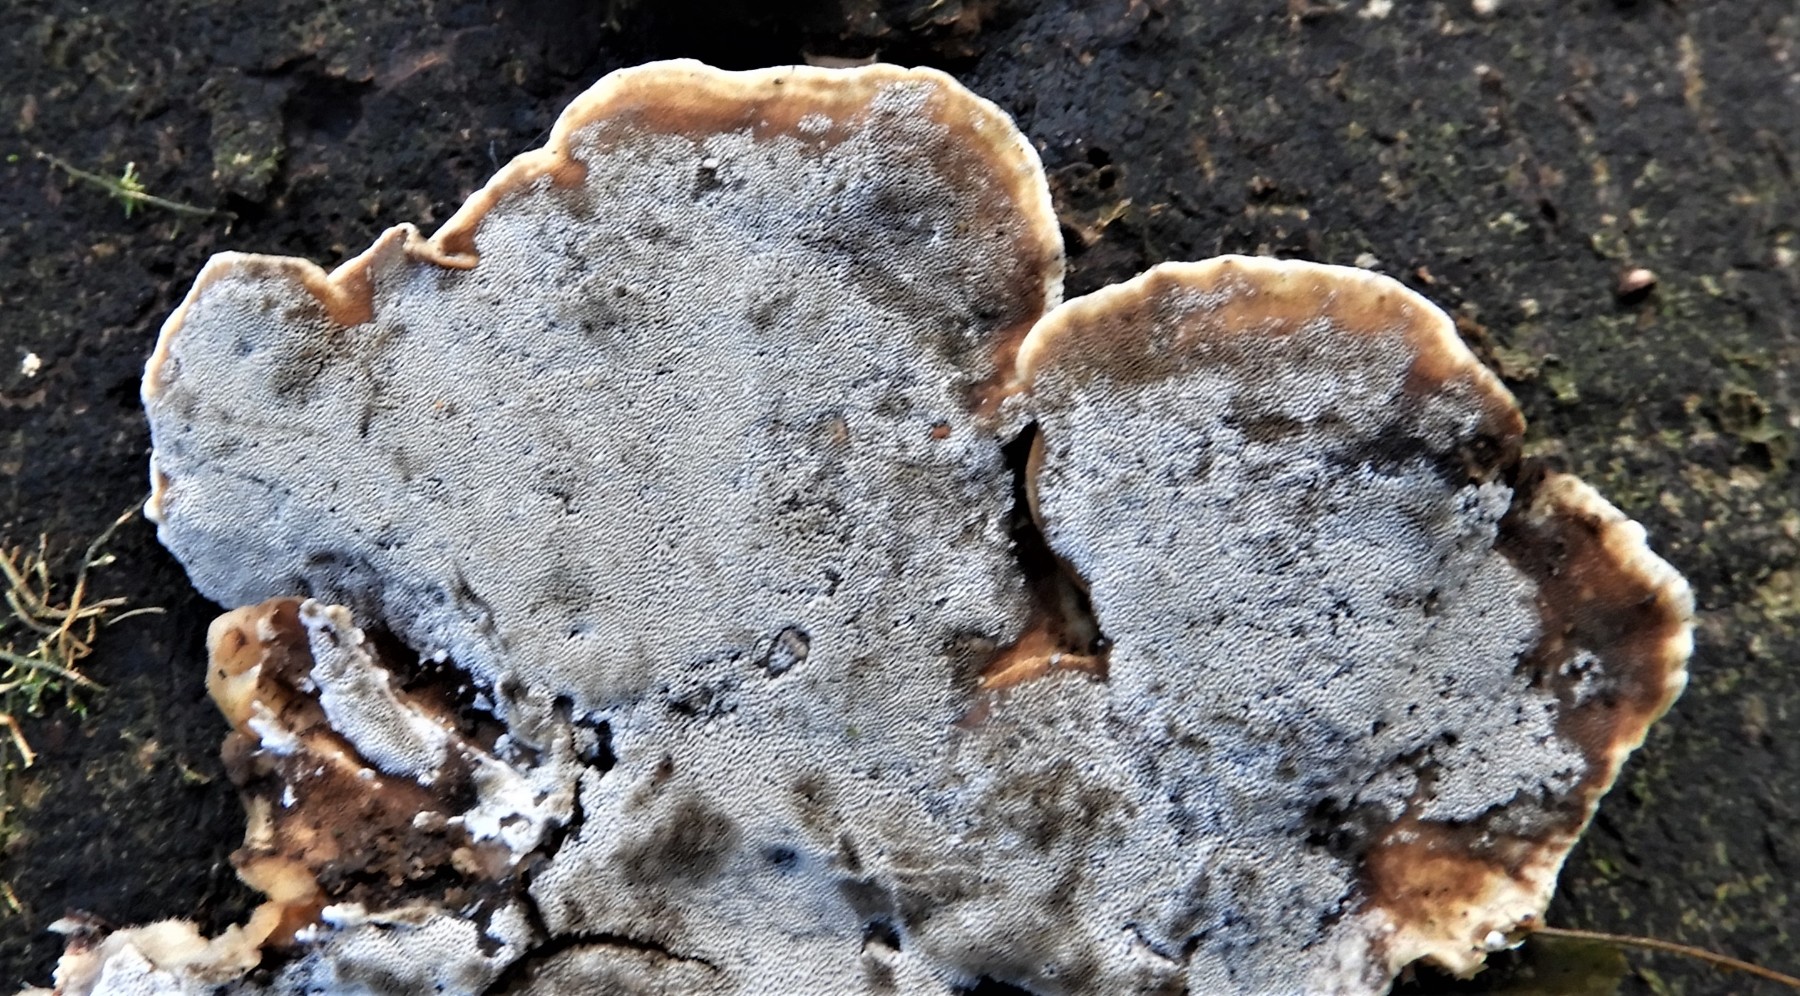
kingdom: Fungi
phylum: Basidiomycota
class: Agaricomycetes
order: Polyporales
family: Phanerochaetaceae
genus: Bjerkandera
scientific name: Bjerkandera adusta
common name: sveden sodporesvamp
